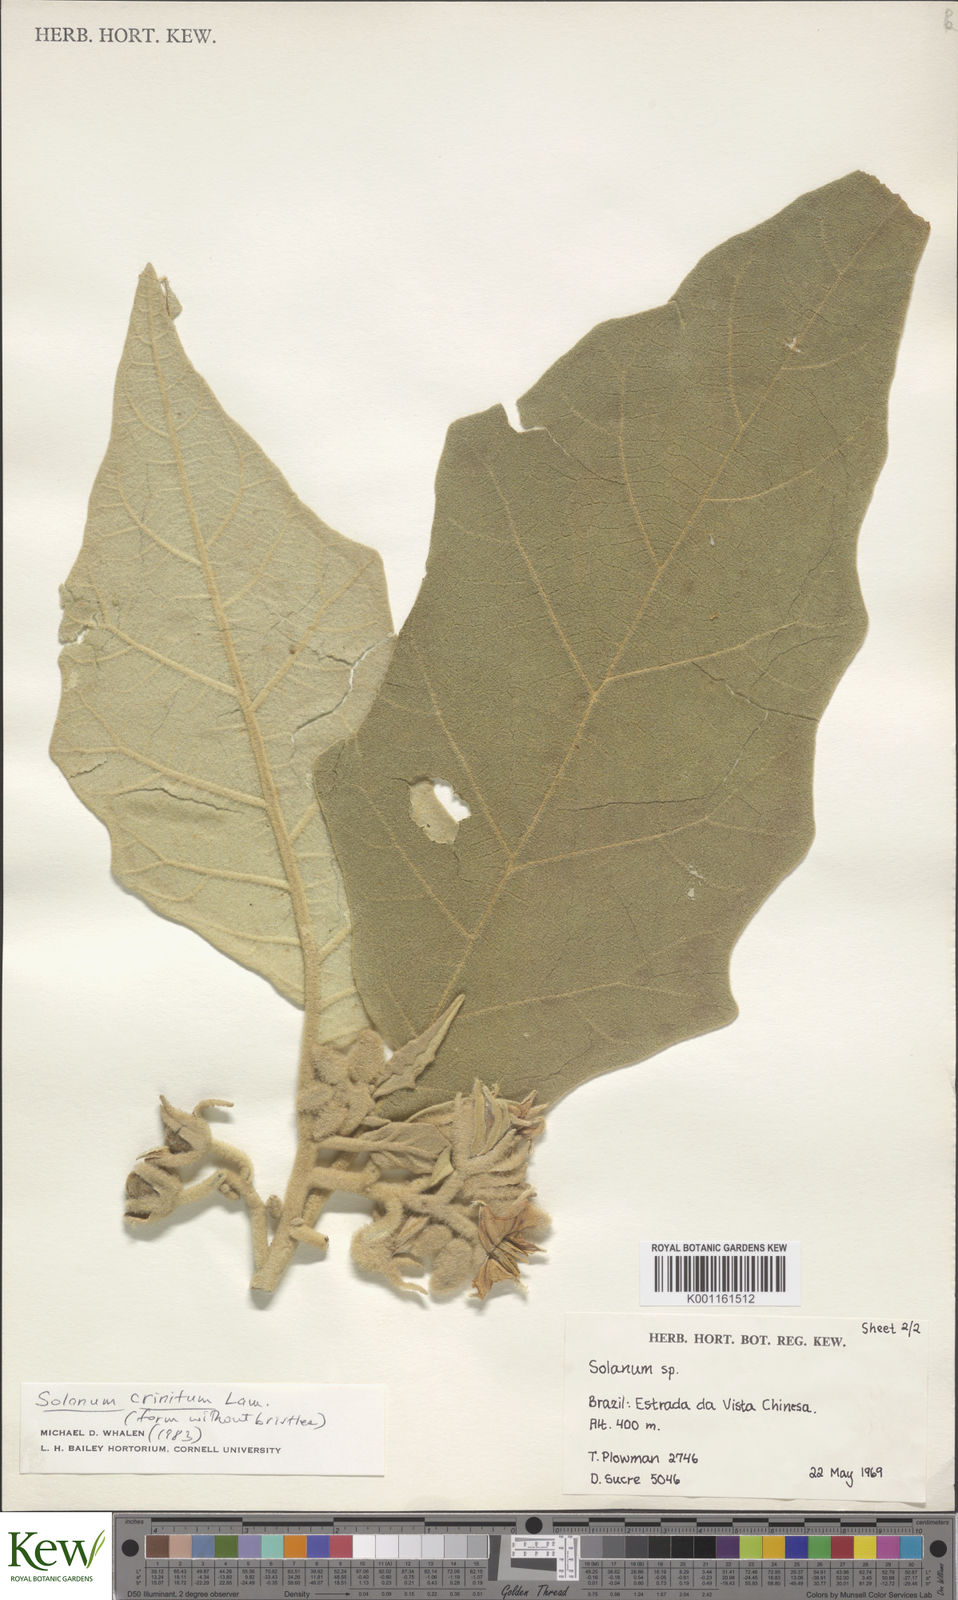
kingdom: Plantae
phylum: Tracheophyta
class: Magnoliopsida
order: Solanales
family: Solanaceae
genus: Solanum
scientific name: Solanum crinitum
